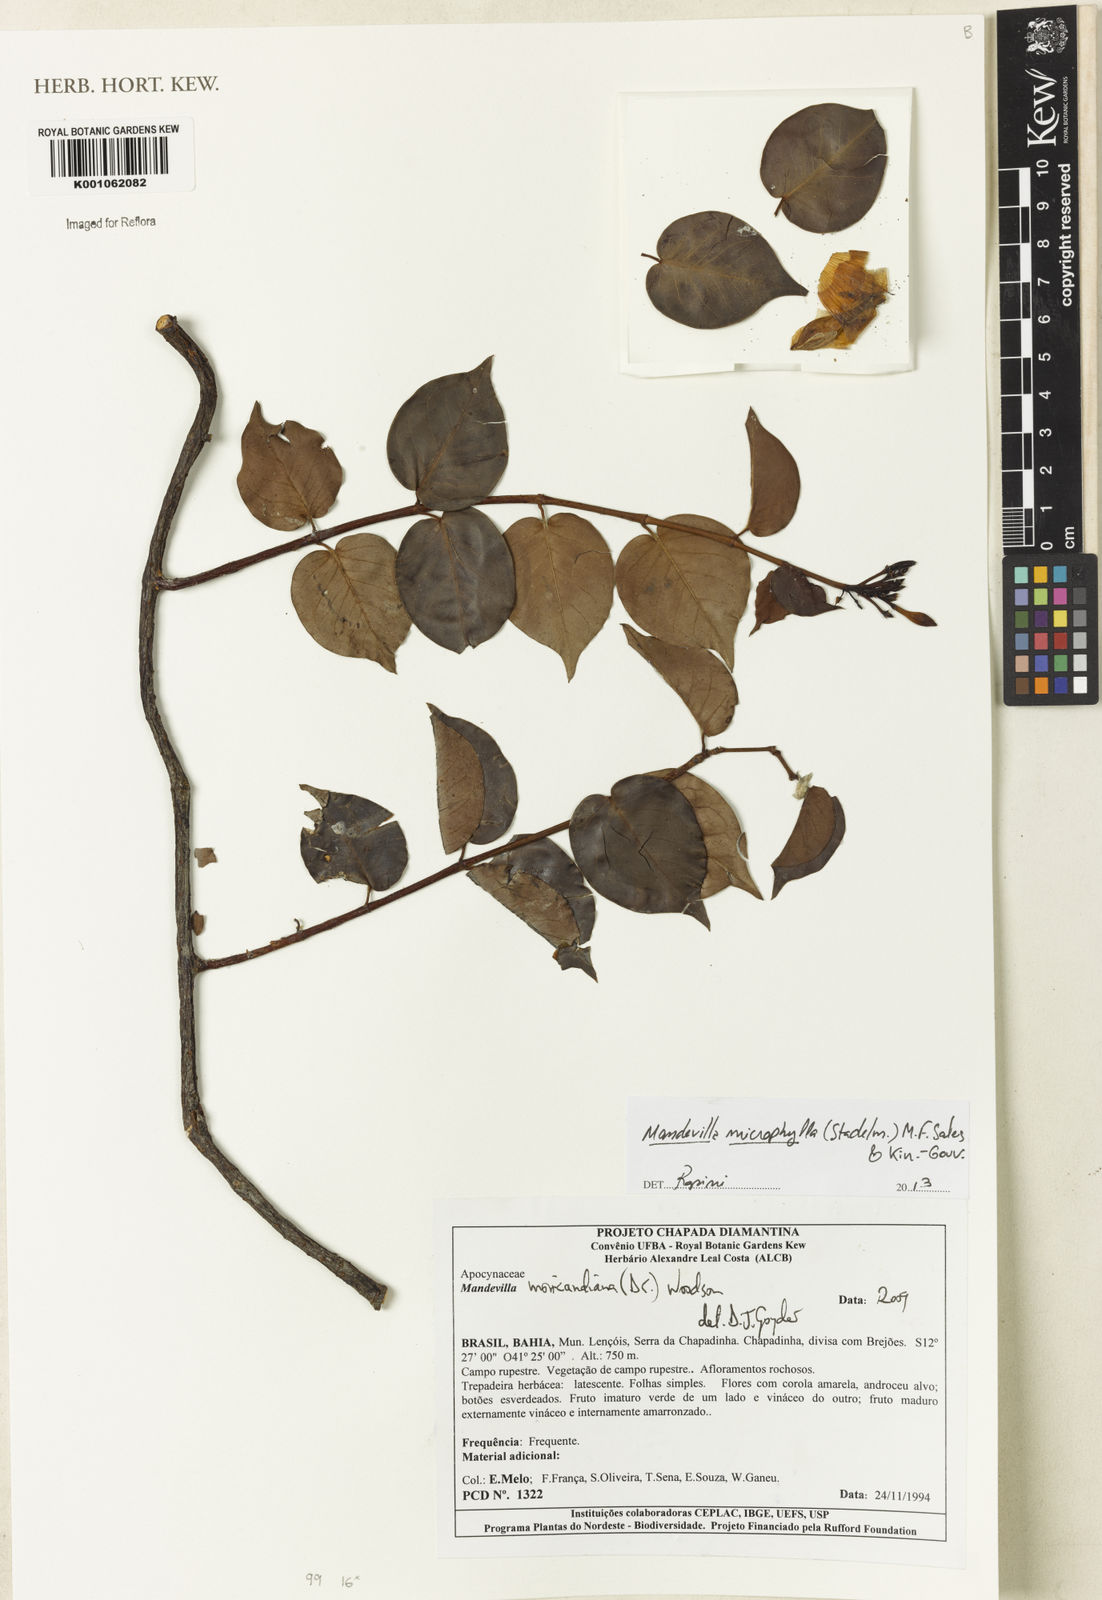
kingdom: Plantae
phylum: Tracheophyta
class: Magnoliopsida
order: Gentianales
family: Apocynaceae
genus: Mandevilla
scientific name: Mandevilla
